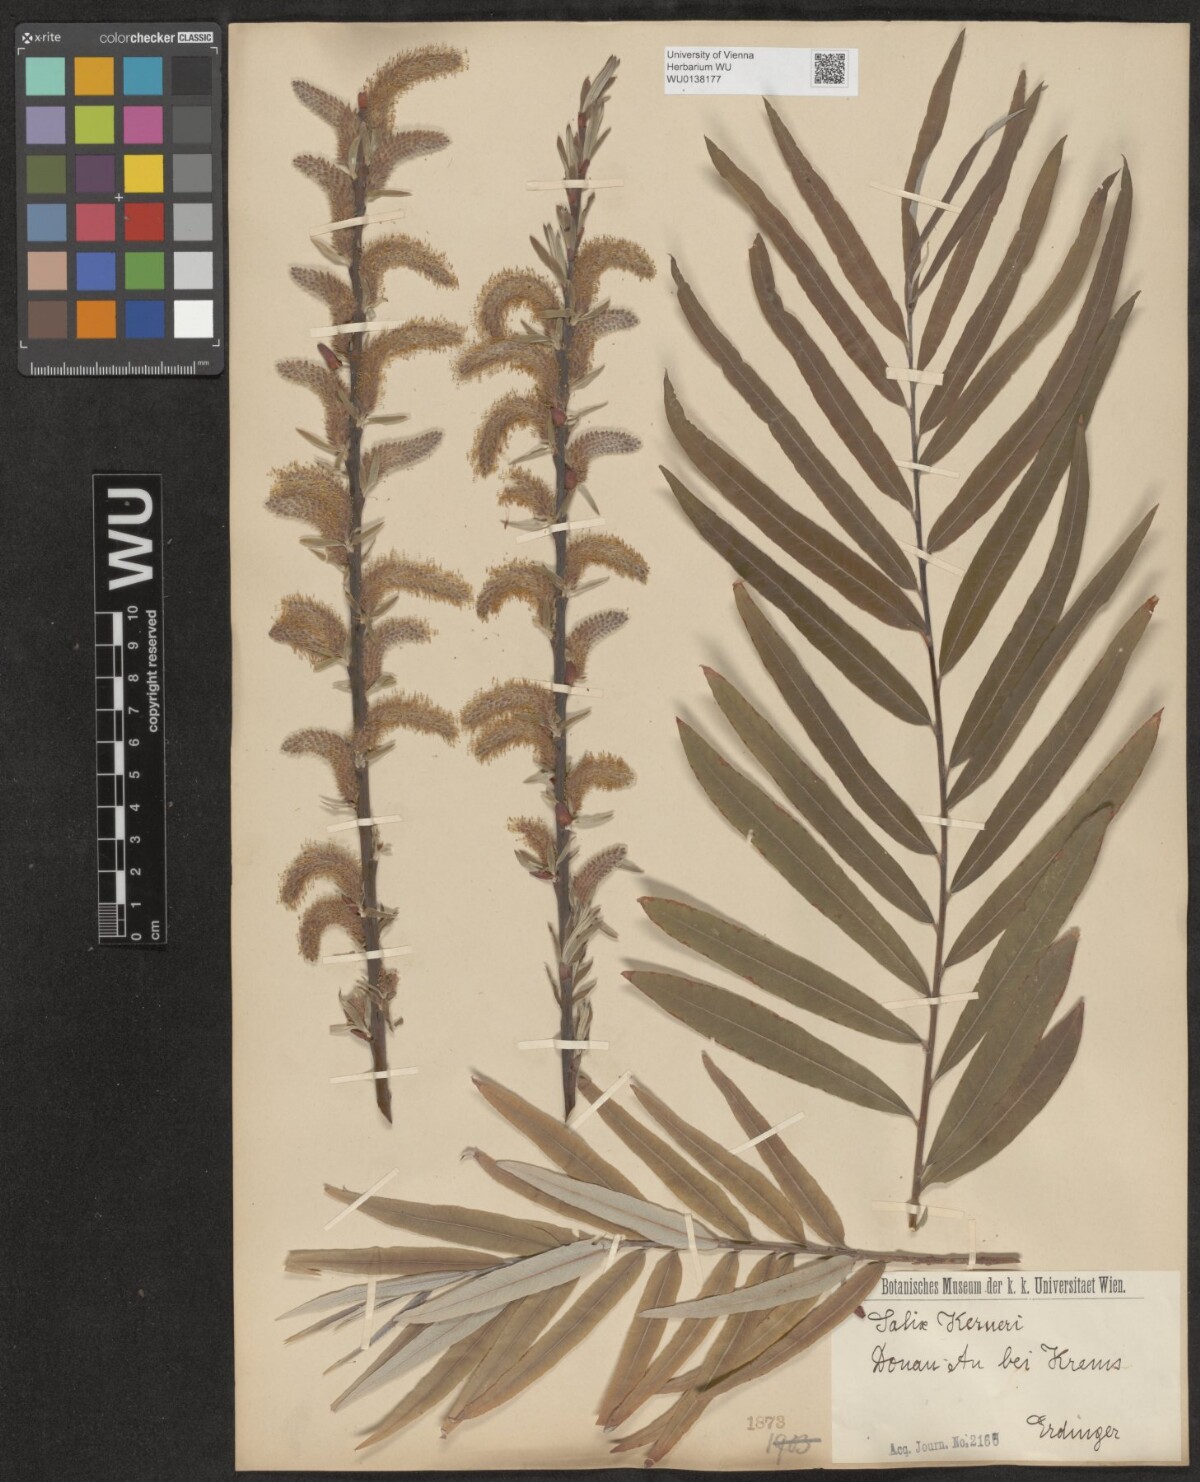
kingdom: Plantae
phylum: Tracheophyta
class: Magnoliopsida
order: Malpighiales
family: Salicaceae
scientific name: Salicaceae
